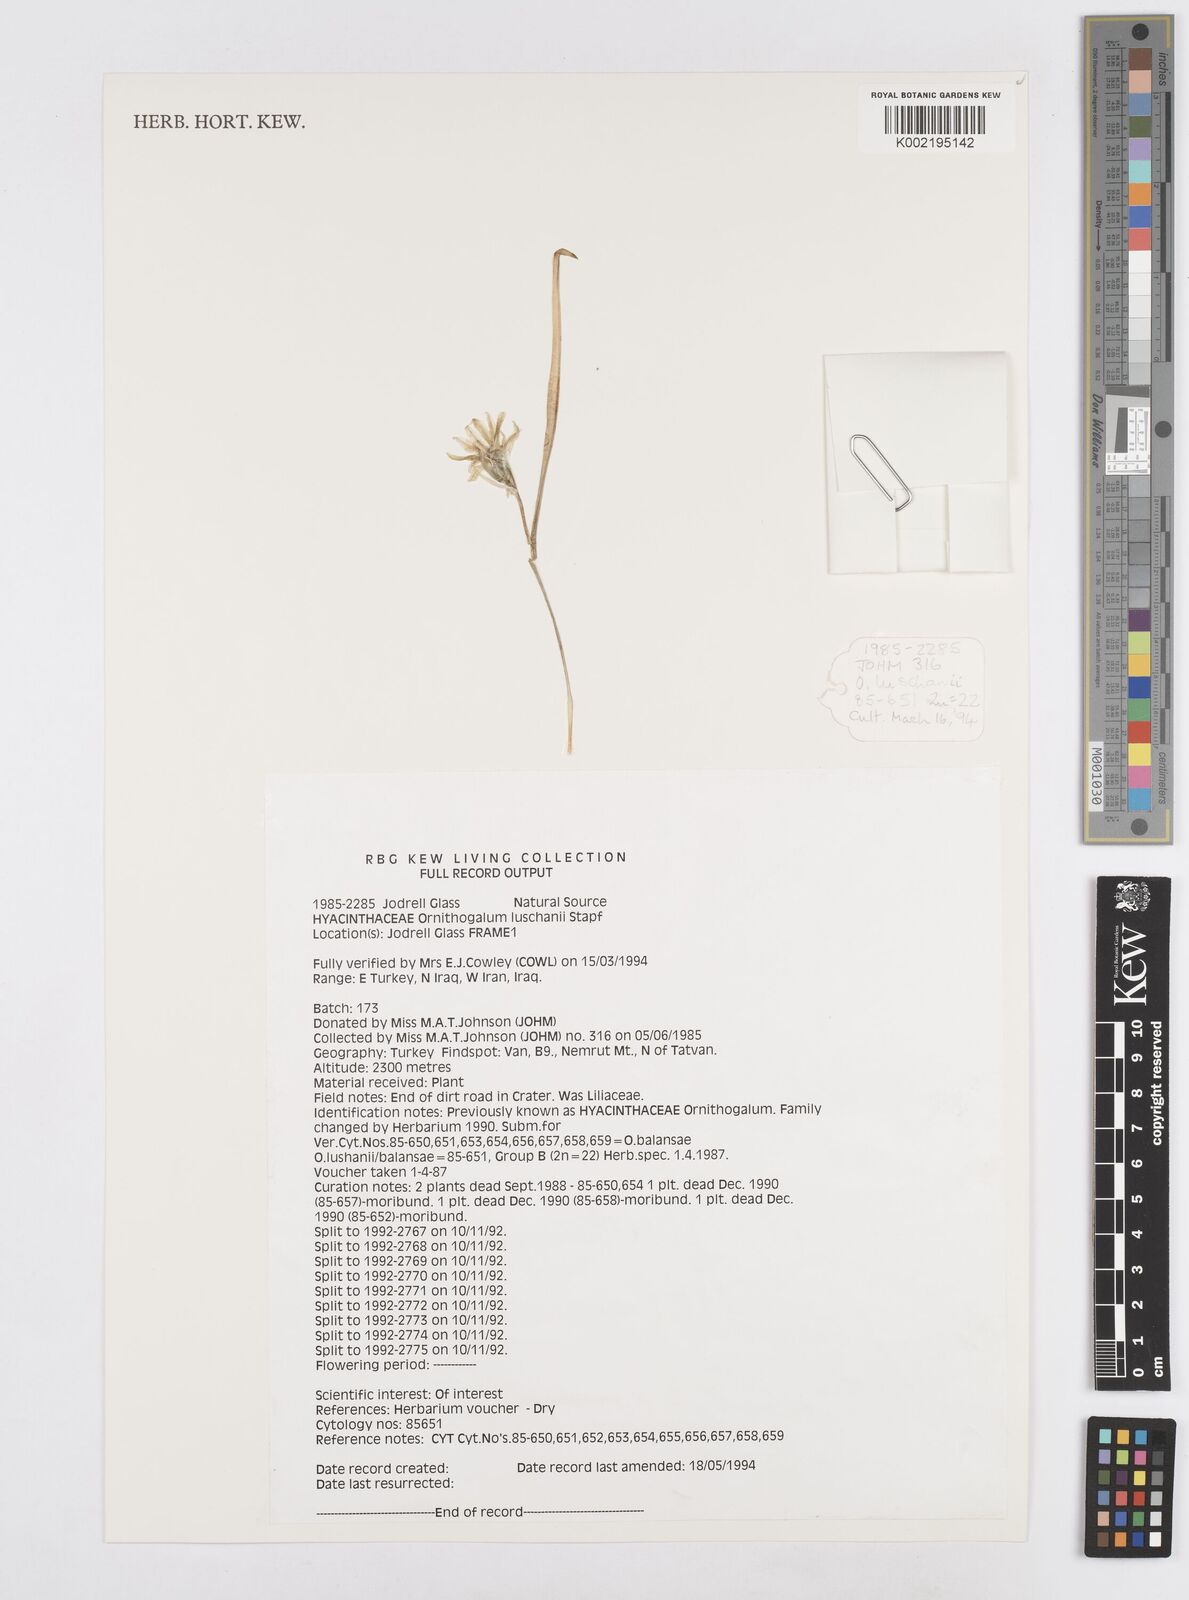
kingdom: Plantae
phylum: Tracheophyta
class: Liliopsida
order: Asparagales
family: Asparagaceae
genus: Ornithogalum
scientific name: Ornithogalum luschanii
